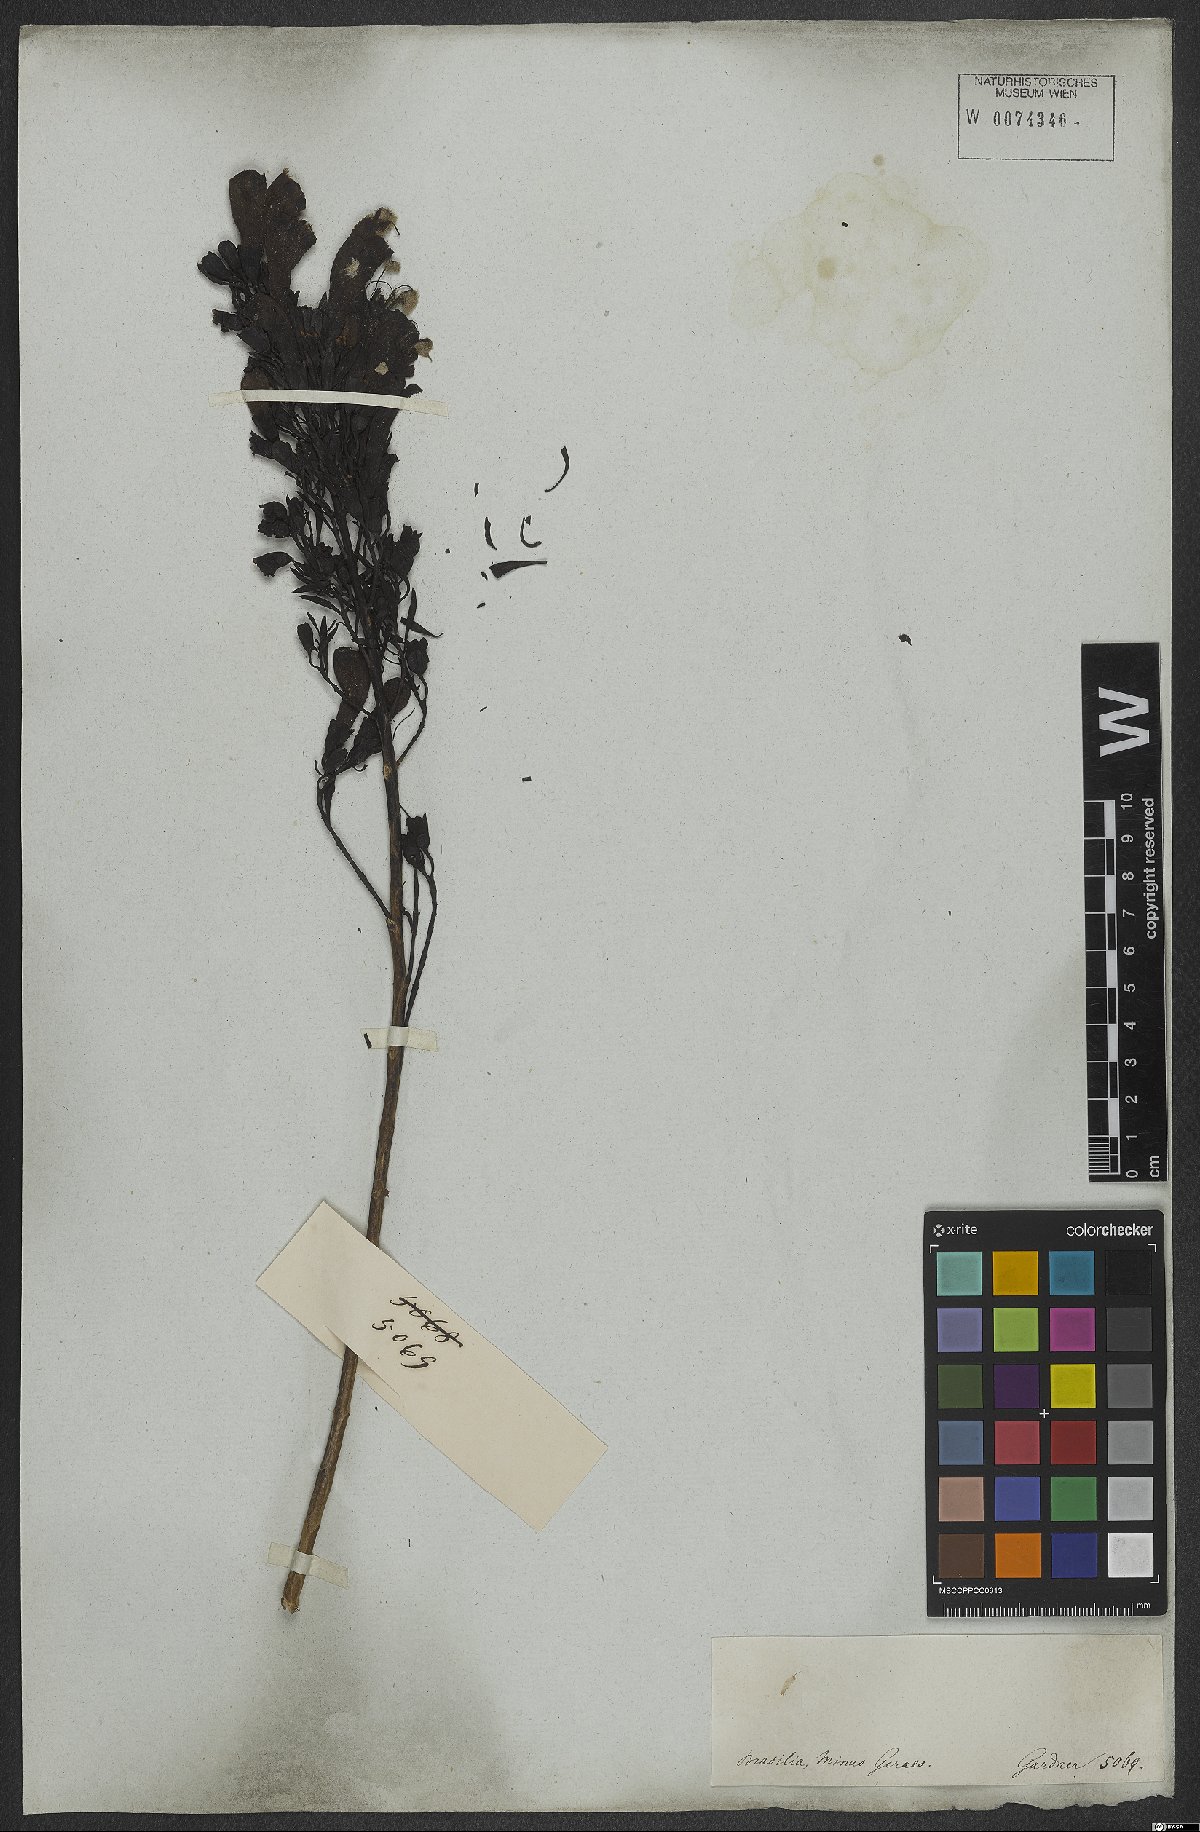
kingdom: Plantae
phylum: Tracheophyta
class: Magnoliopsida
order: Lamiales
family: Orobanchaceae
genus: Esterhazya
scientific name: Esterhazya splendida
